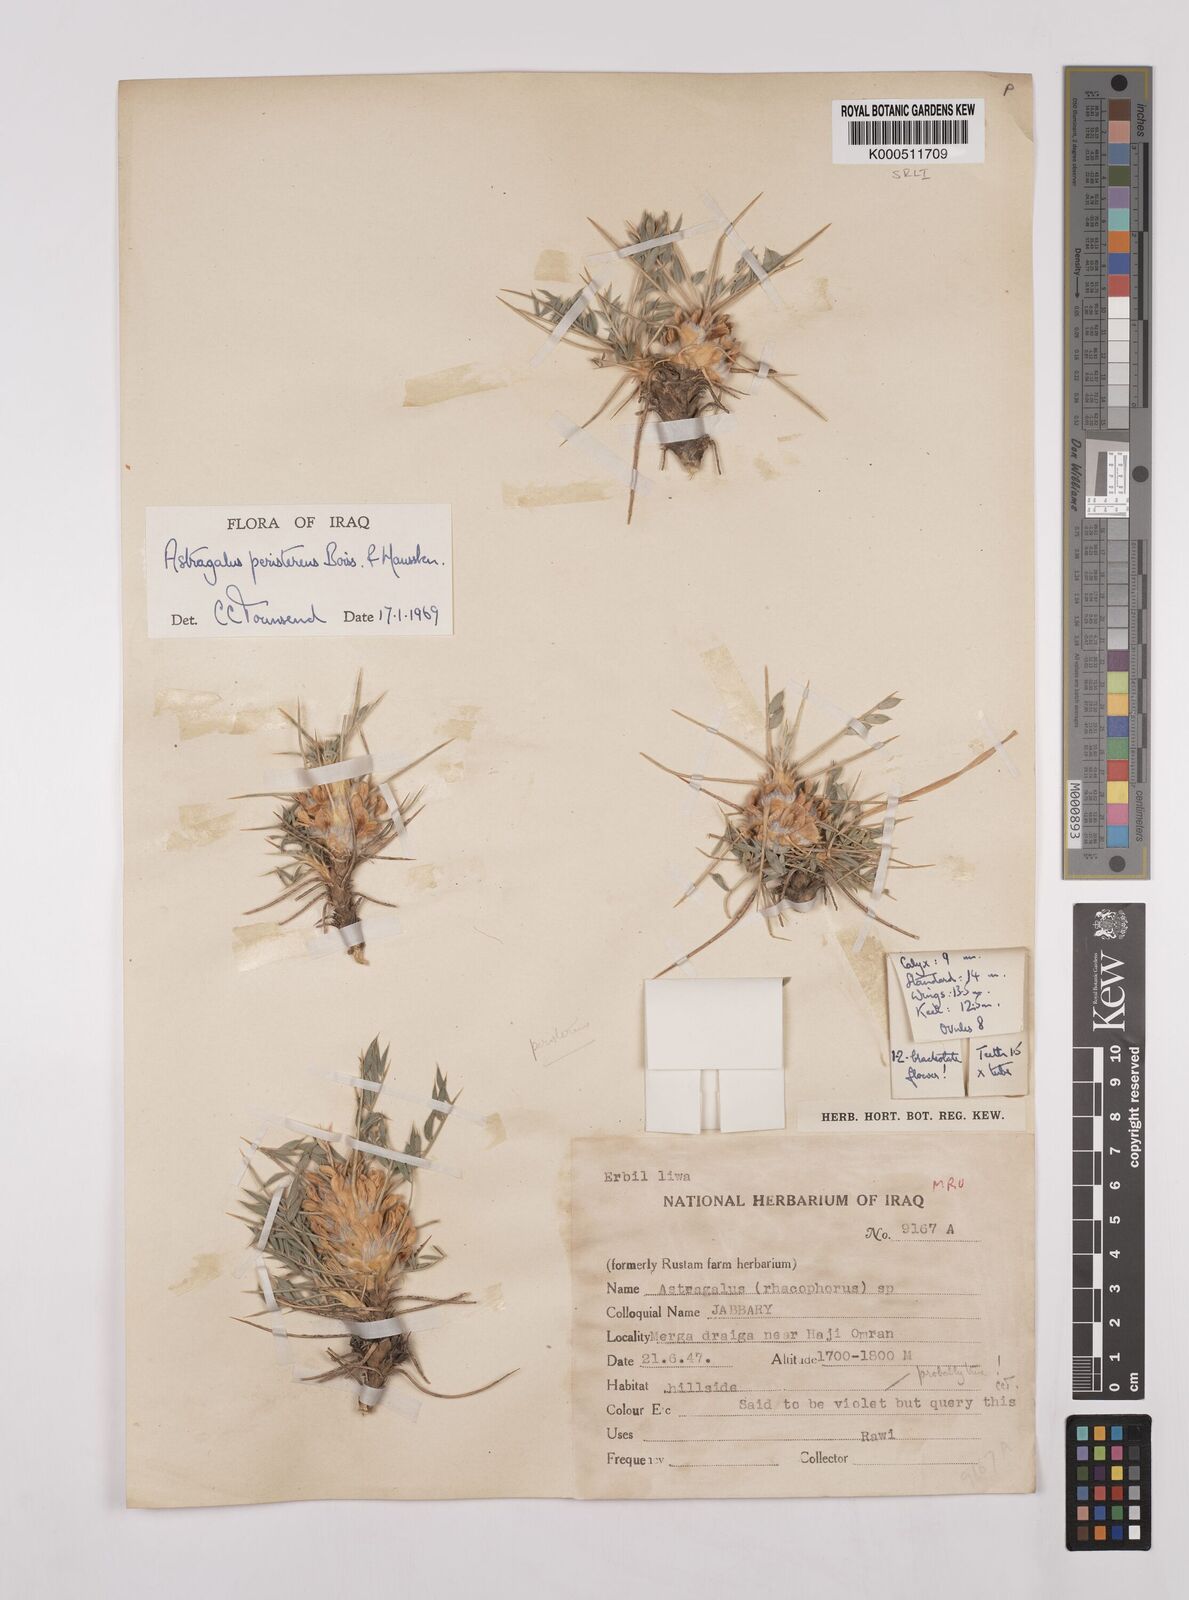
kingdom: Plantae
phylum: Tracheophyta
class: Magnoliopsida
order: Fabales
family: Fabaceae
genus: Astragalus
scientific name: Astragalus strictifolius
